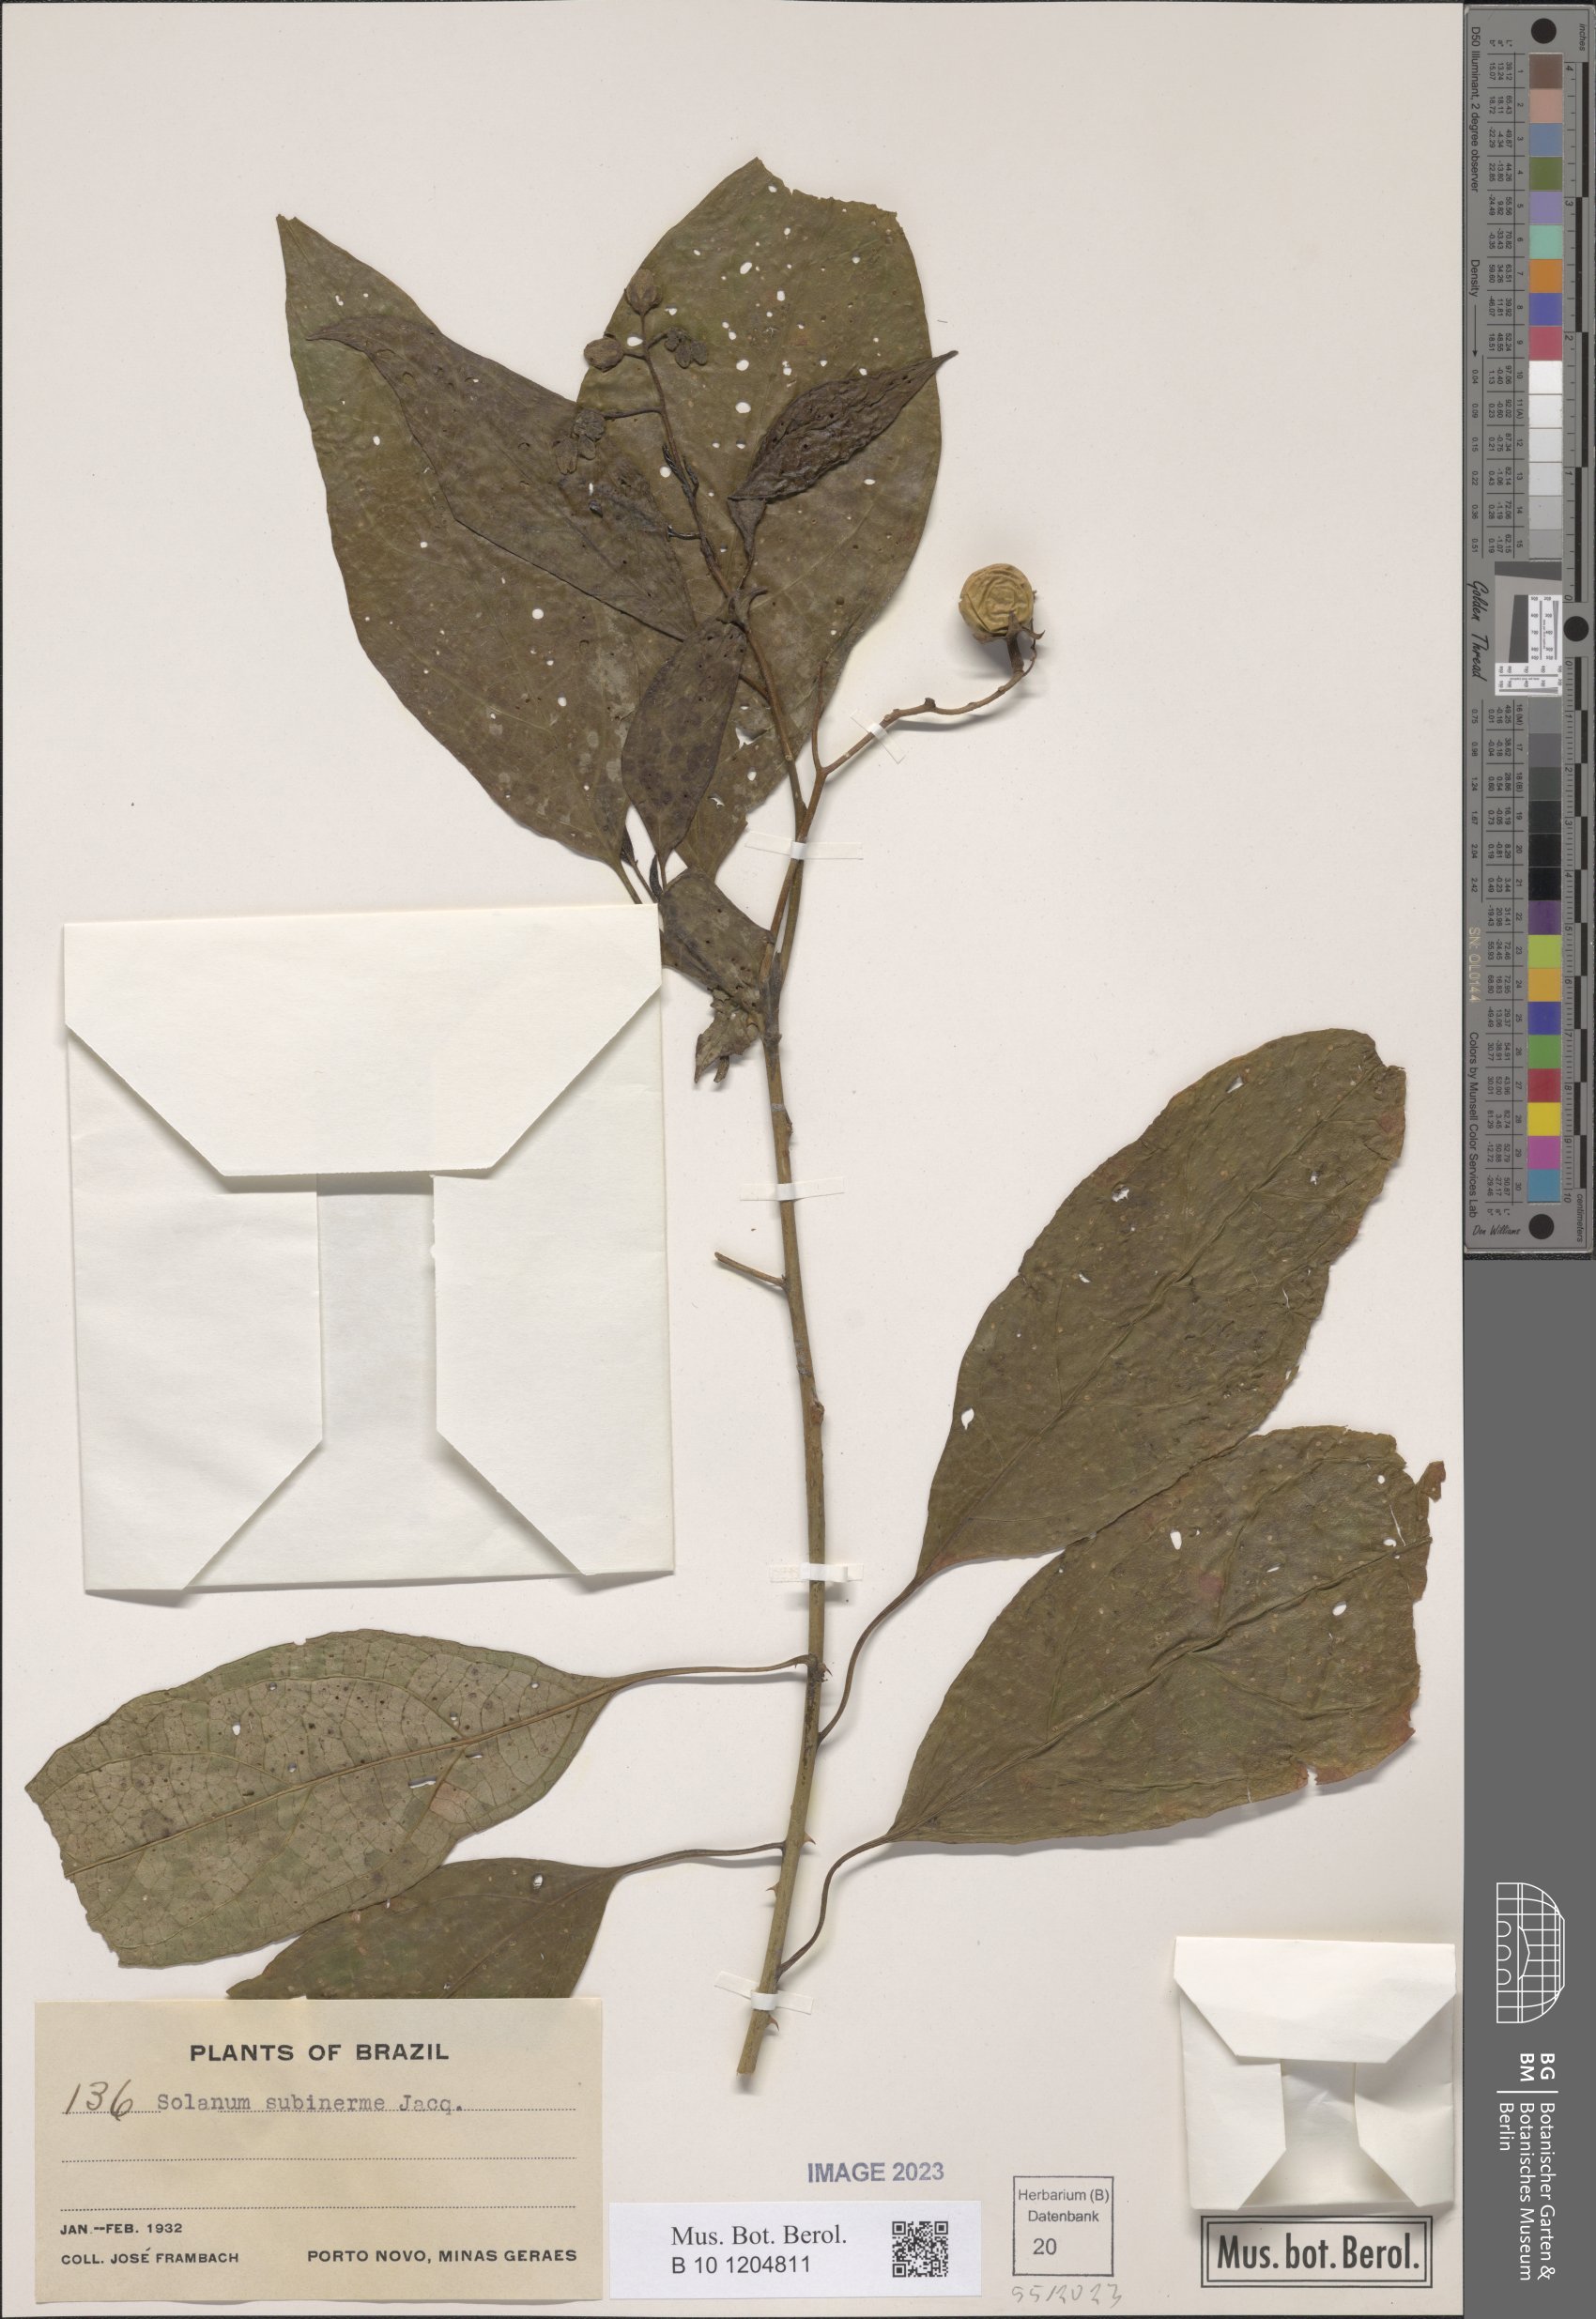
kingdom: Plantae
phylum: Tracheophyta
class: Magnoliopsida
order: Solanales
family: Solanaceae
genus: Solanum
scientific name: Solanum subinerme
